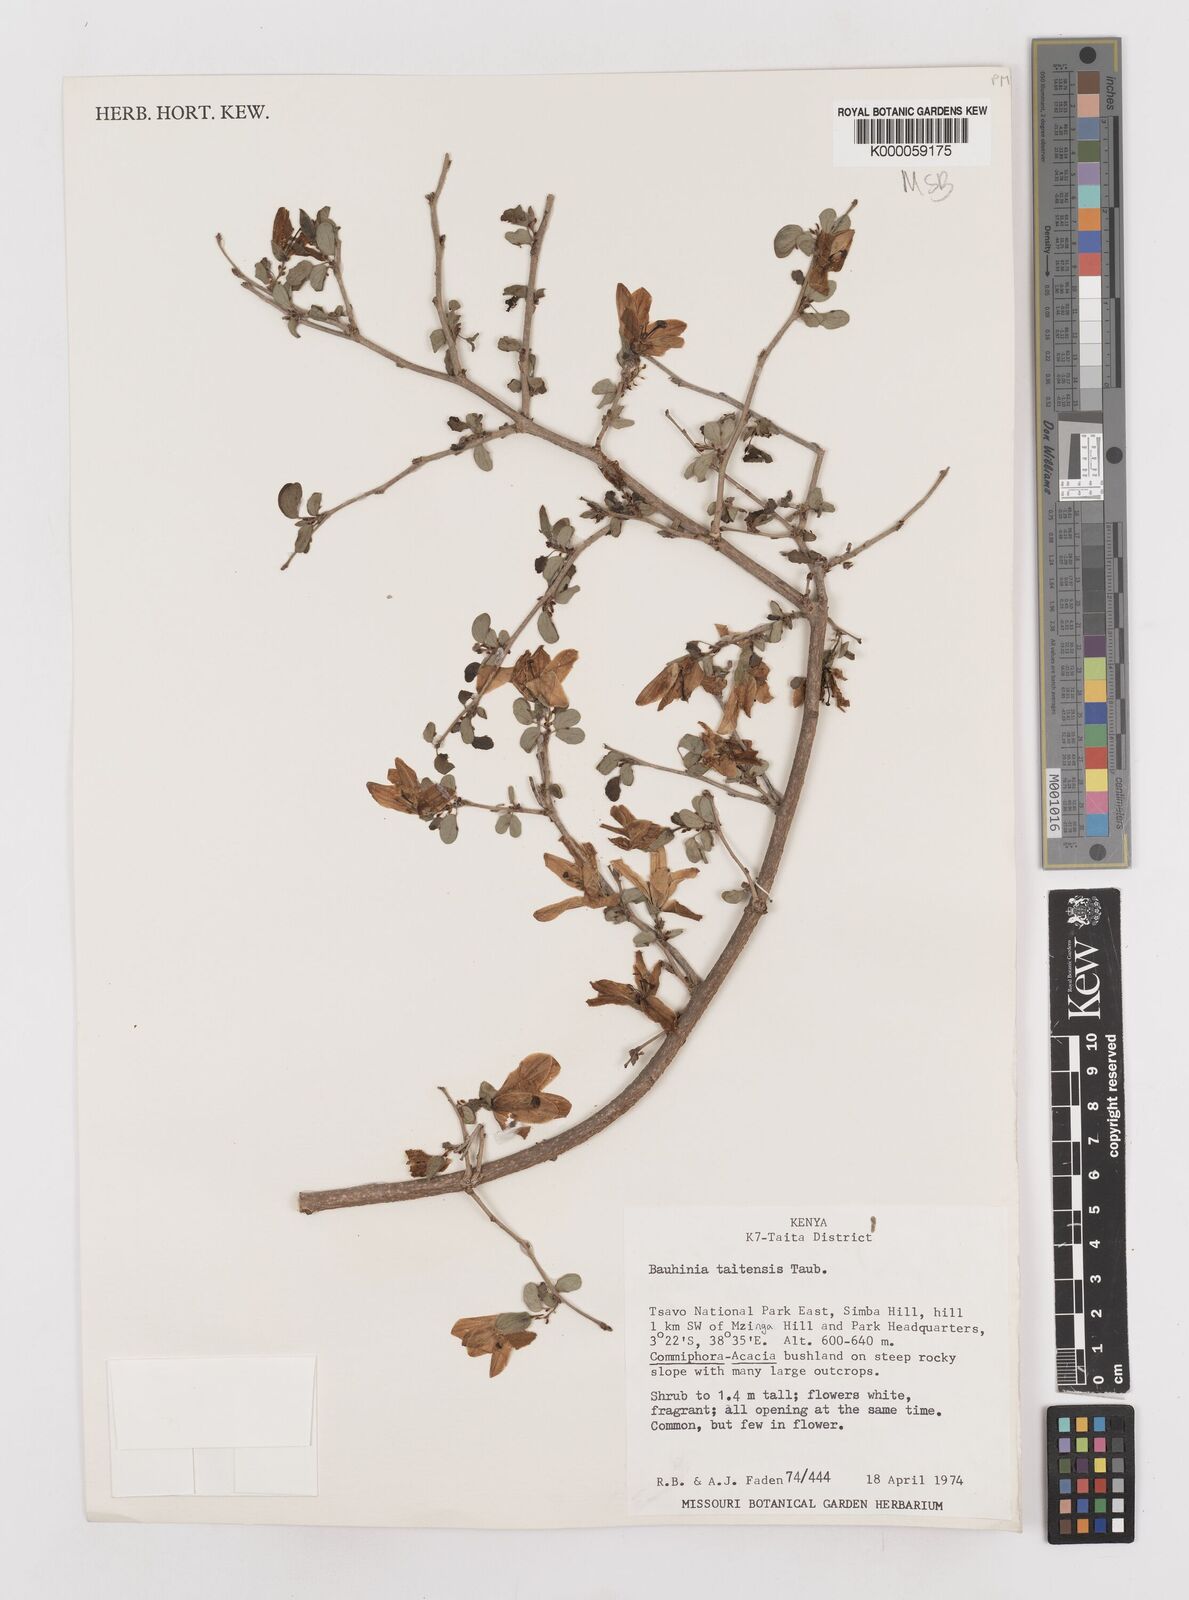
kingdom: Plantae
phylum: Tracheophyta
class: Magnoliopsida
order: Fabales
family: Fabaceae
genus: Bauhinia
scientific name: Bauhinia taitensis
